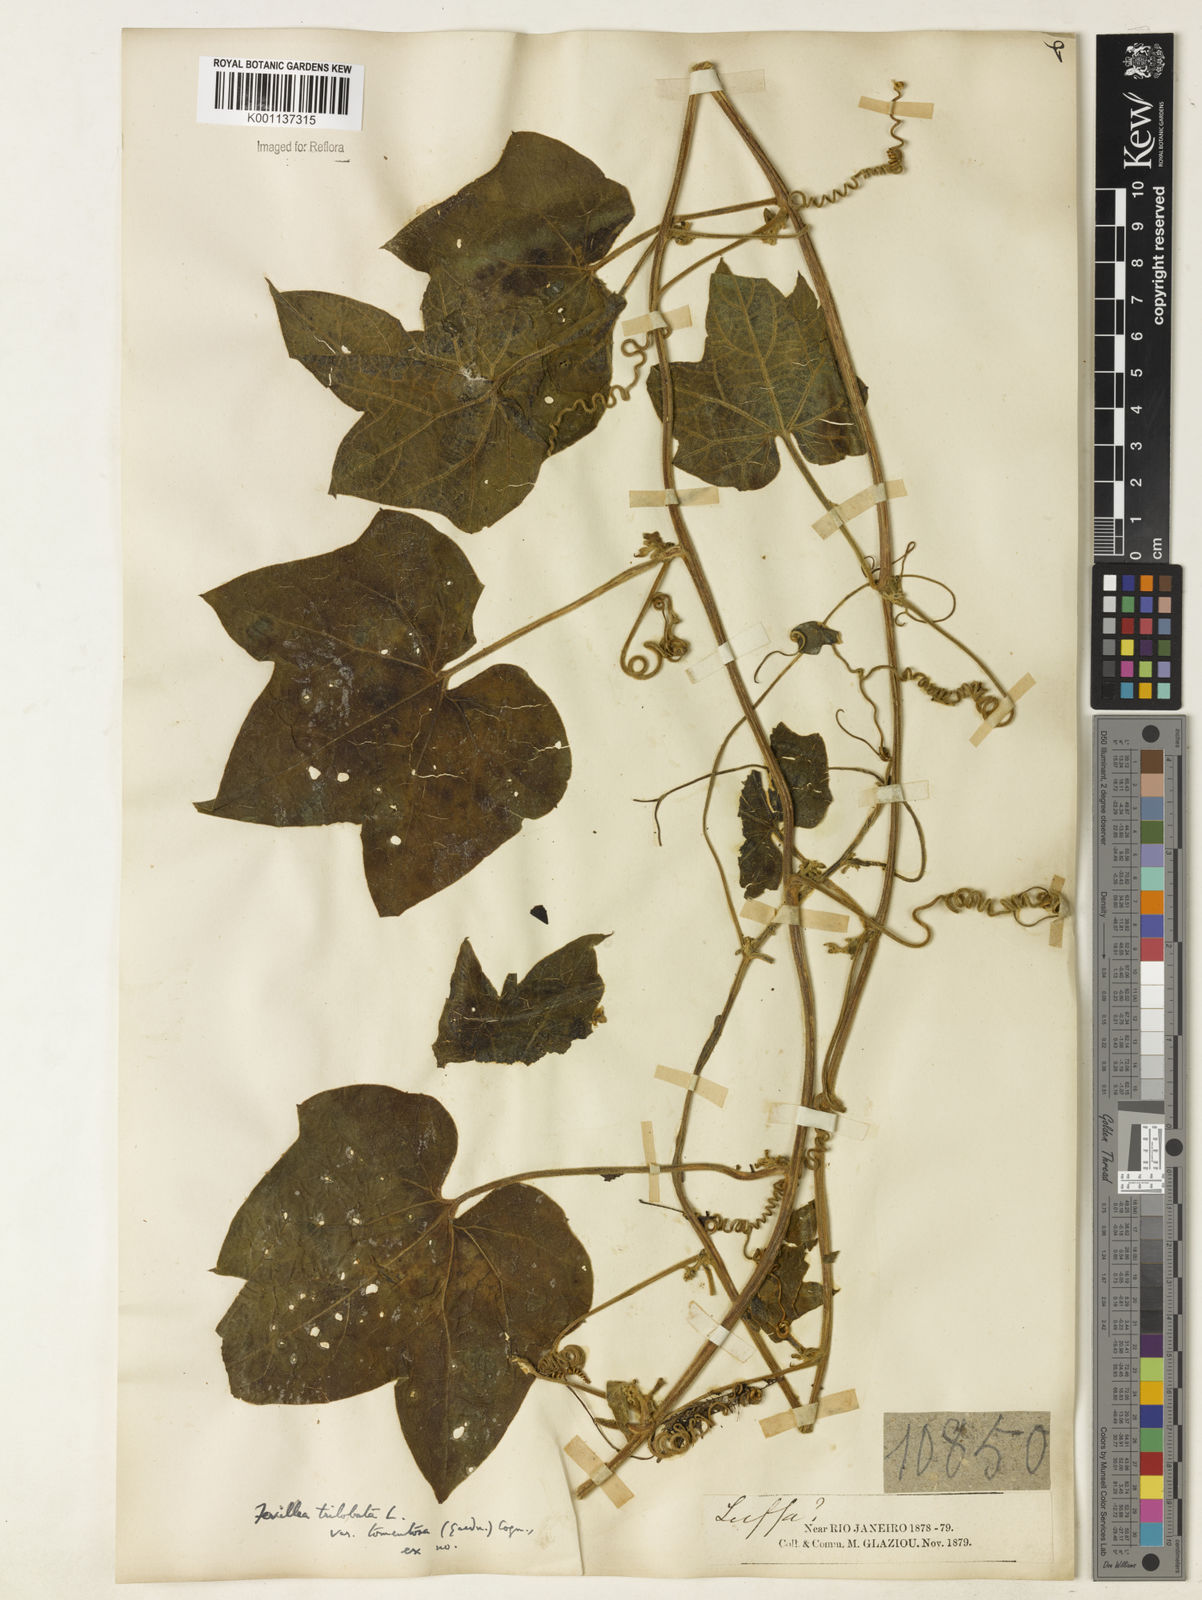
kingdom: Plantae
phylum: Tracheophyta
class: Magnoliopsida
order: Cucurbitales
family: Cucurbitaceae
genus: Fevillea
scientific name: Fevillea trilobata
